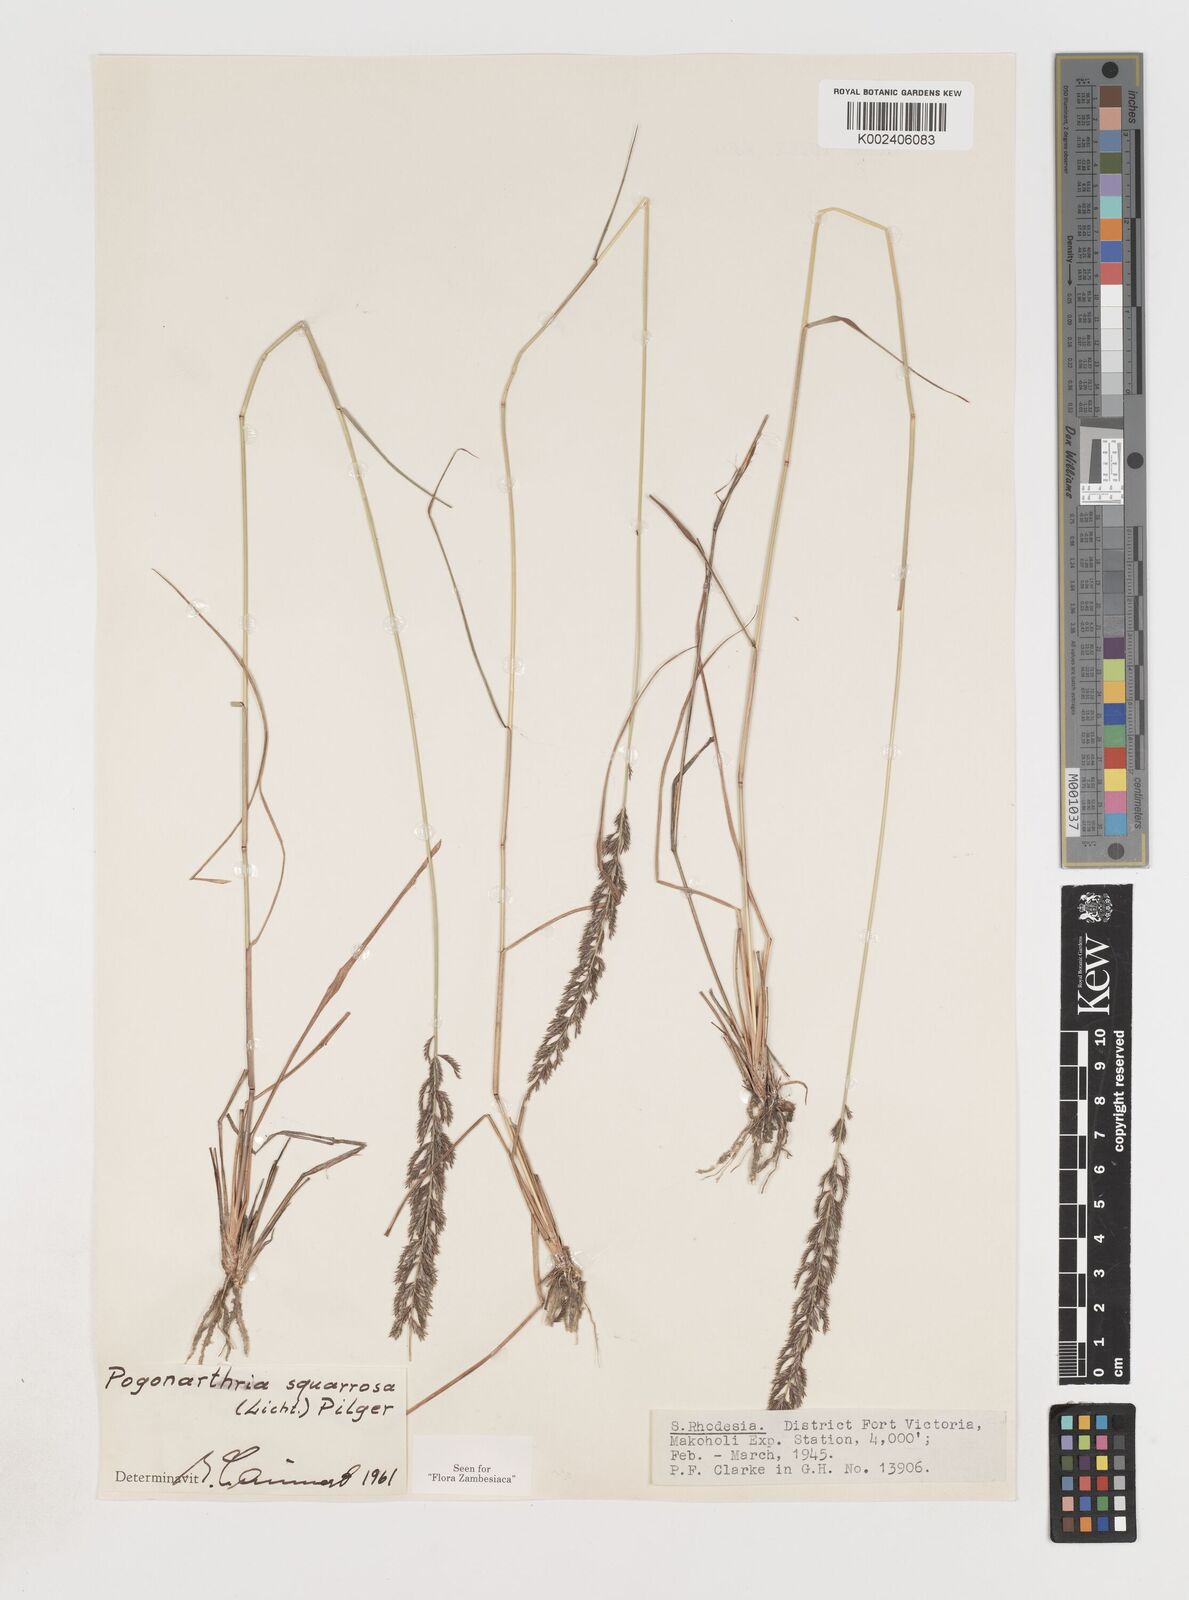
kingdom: Plantae
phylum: Tracheophyta
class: Liliopsida
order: Poales
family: Poaceae
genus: Pogonarthria
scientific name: Pogonarthria squarrosa
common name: Grass
